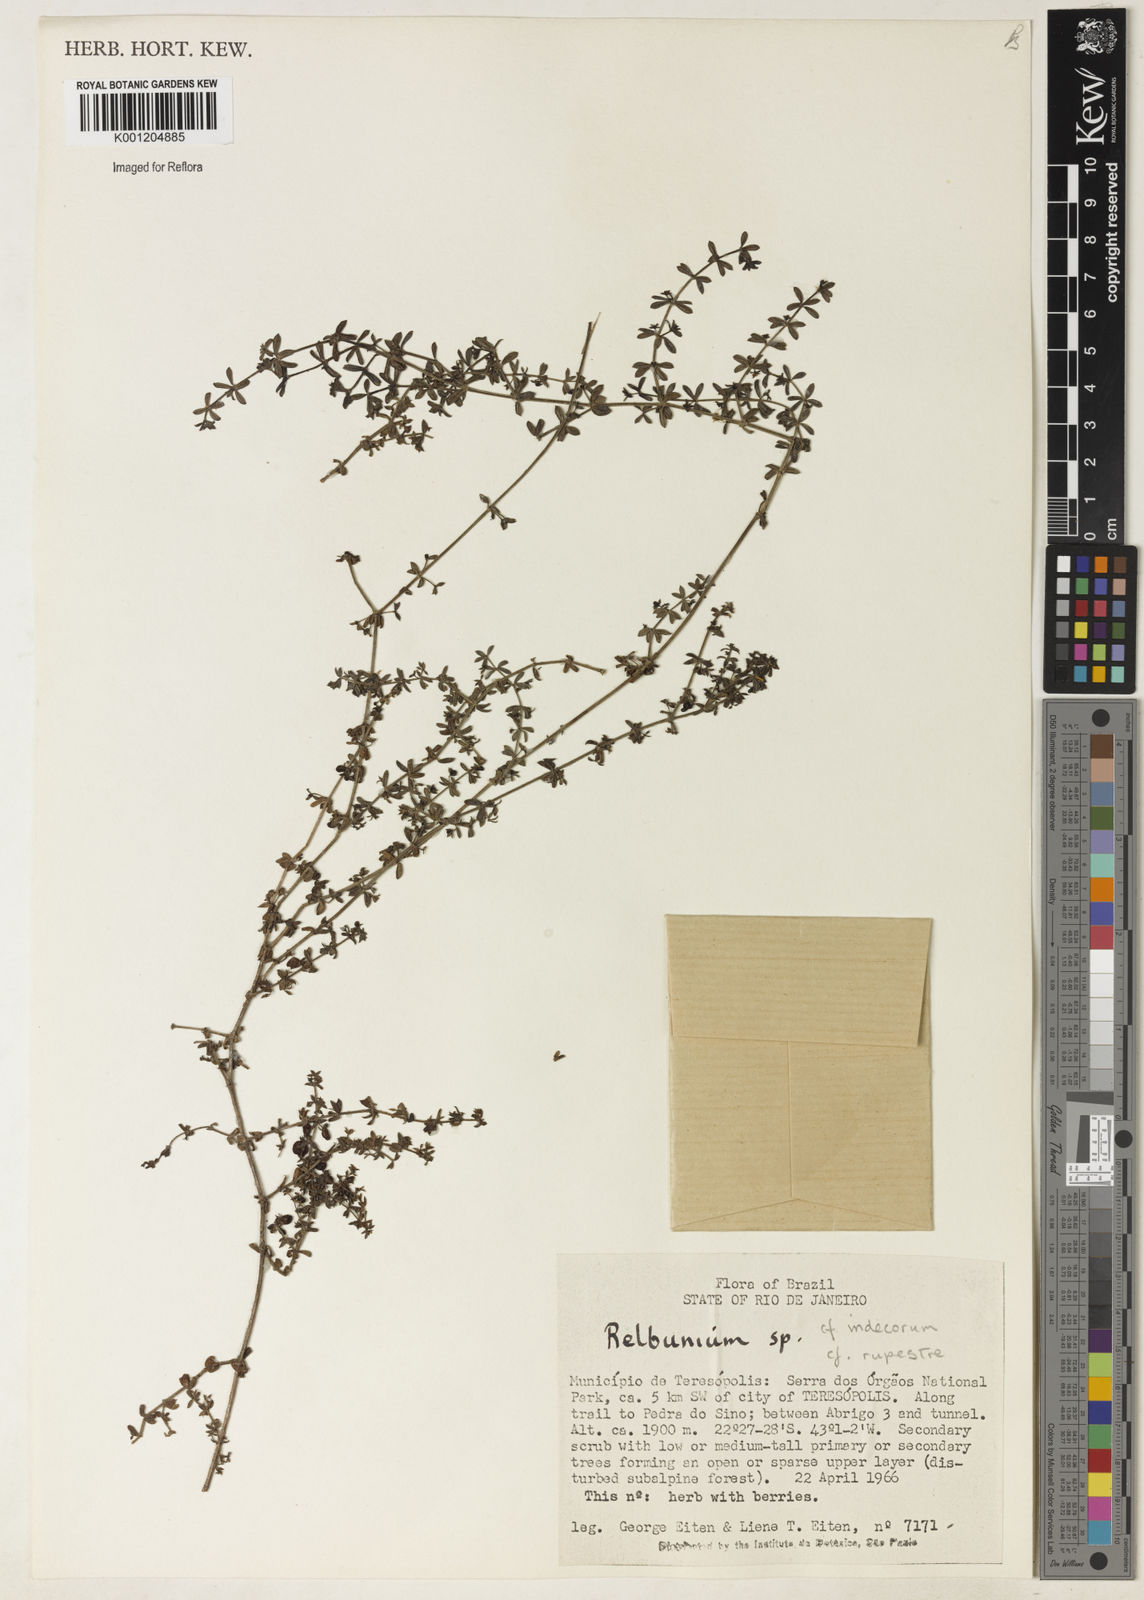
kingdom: Plantae
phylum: Tracheophyta
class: Magnoliopsida
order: Gentianales
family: Rubiaceae
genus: Galium
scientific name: Galium
